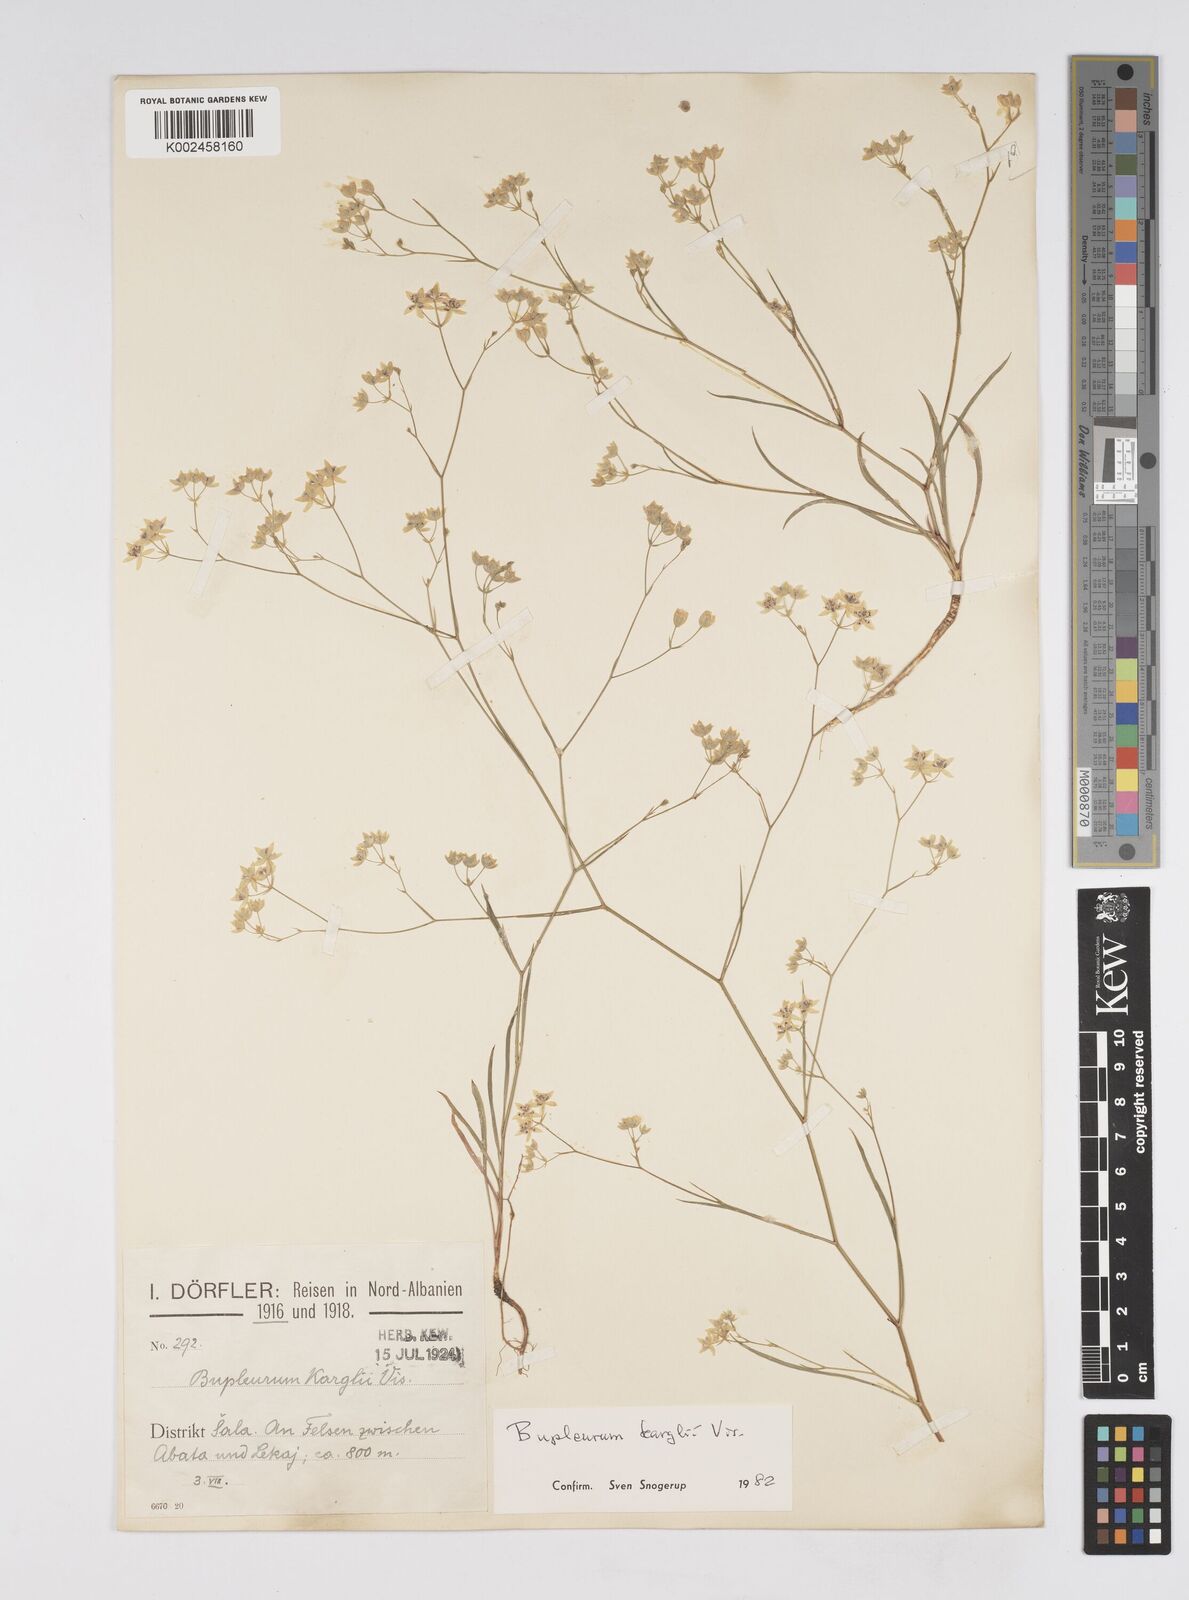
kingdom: Plantae
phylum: Tracheophyta
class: Magnoliopsida
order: Apiales
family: Apiaceae
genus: Bupleurum
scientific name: Bupleurum karglii
